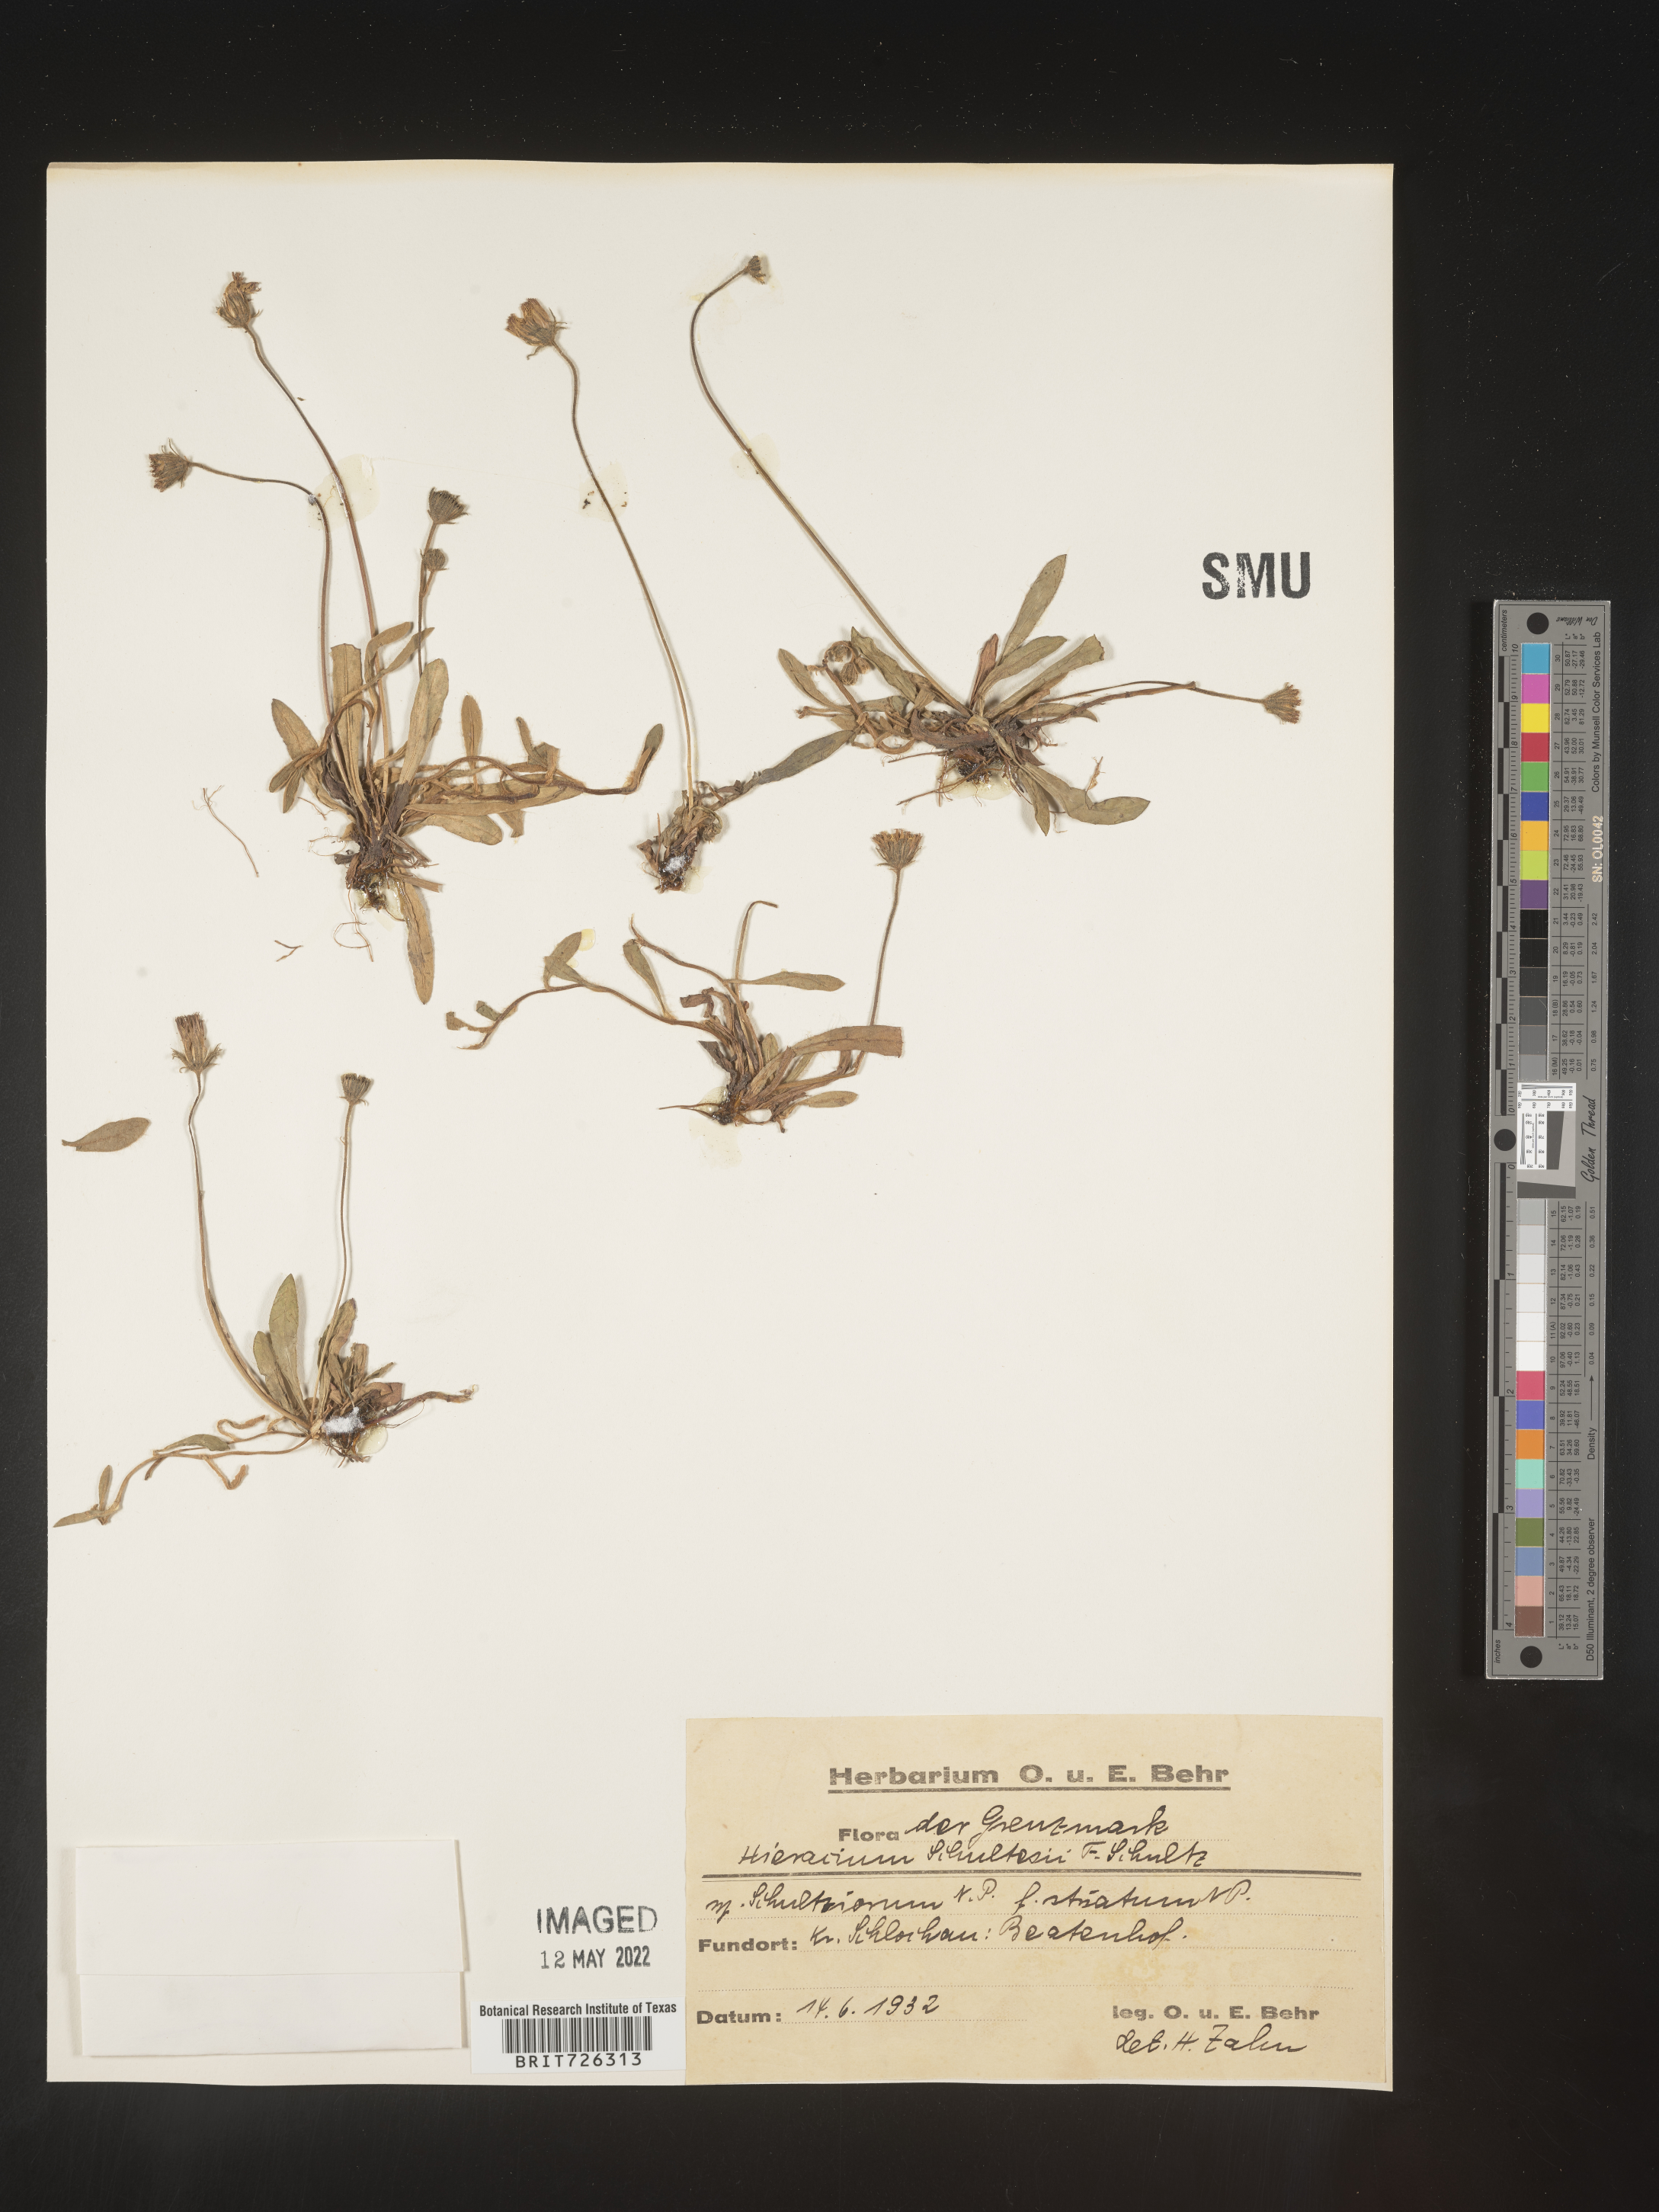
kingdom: Plantae
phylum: Tracheophyta
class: Magnoliopsida
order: Asterales
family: Asteraceae
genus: Hieracium
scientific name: Hieracium
